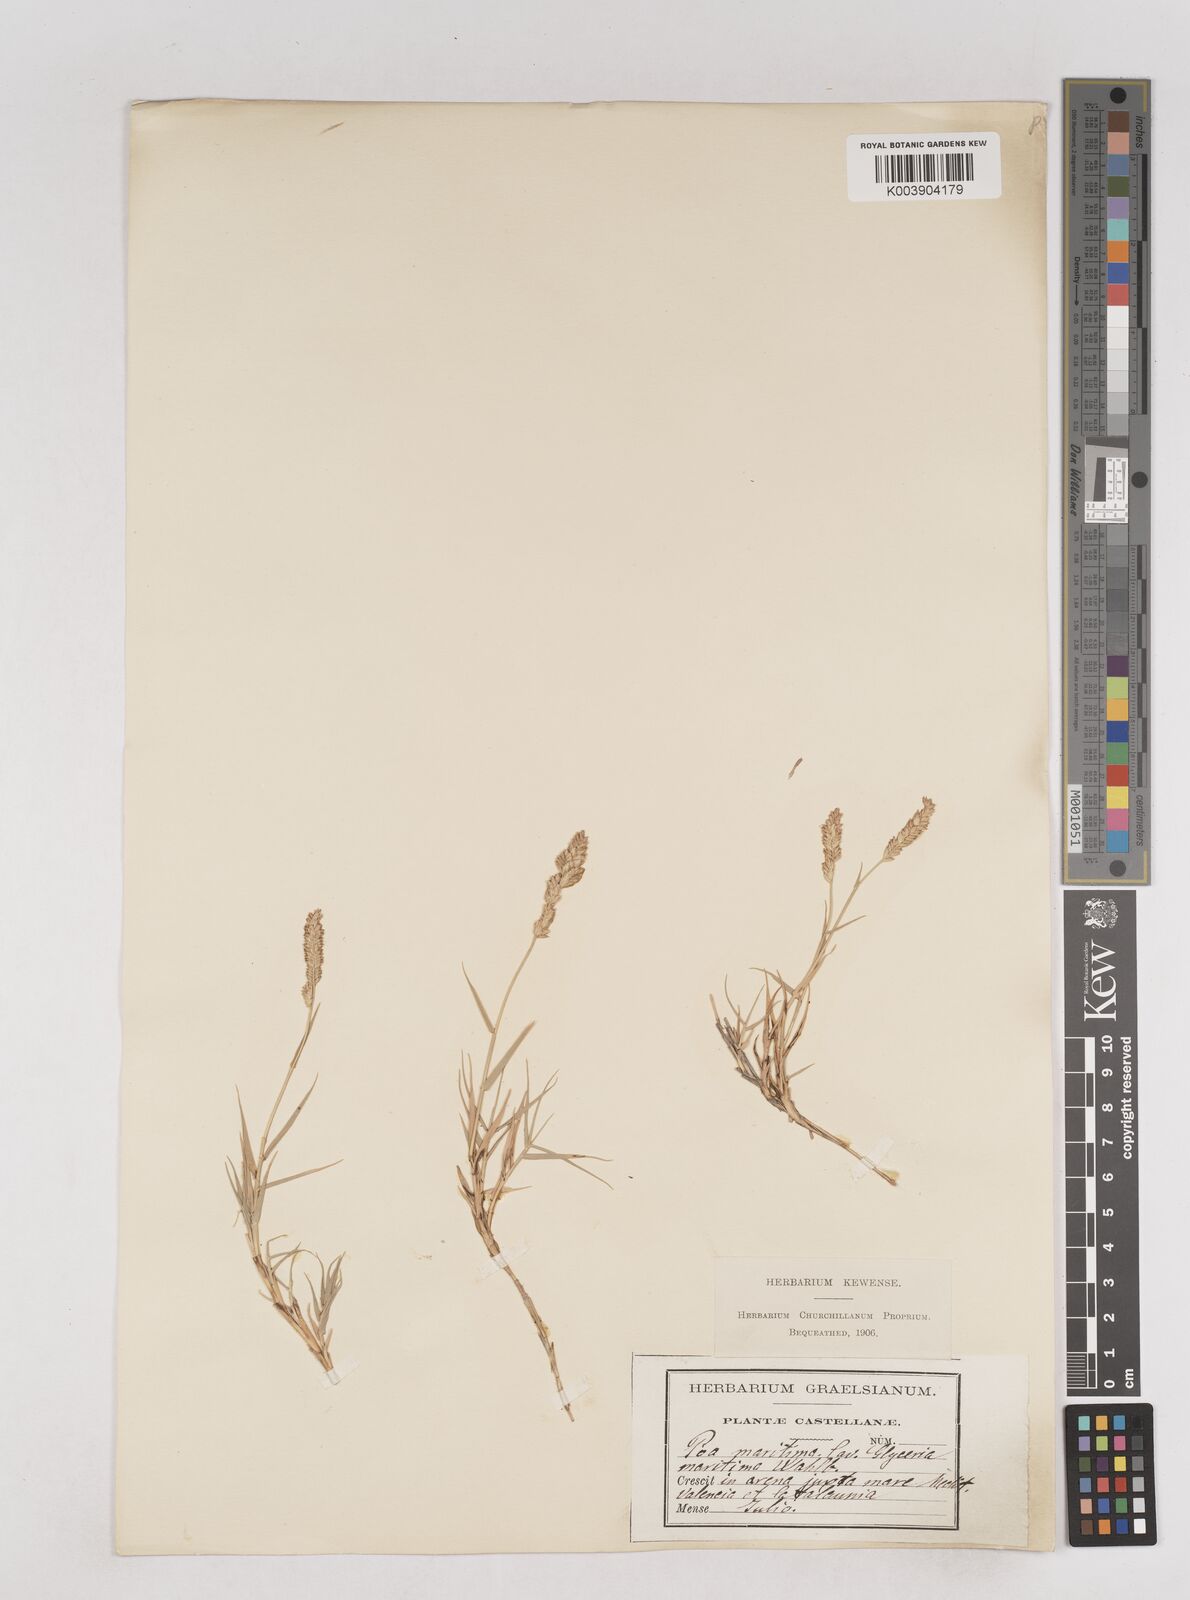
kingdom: Plantae
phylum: Tracheophyta
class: Liliopsida
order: Poales
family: Poaceae
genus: Aeluropus
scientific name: Aeluropus littoralis
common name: Indian walnut
